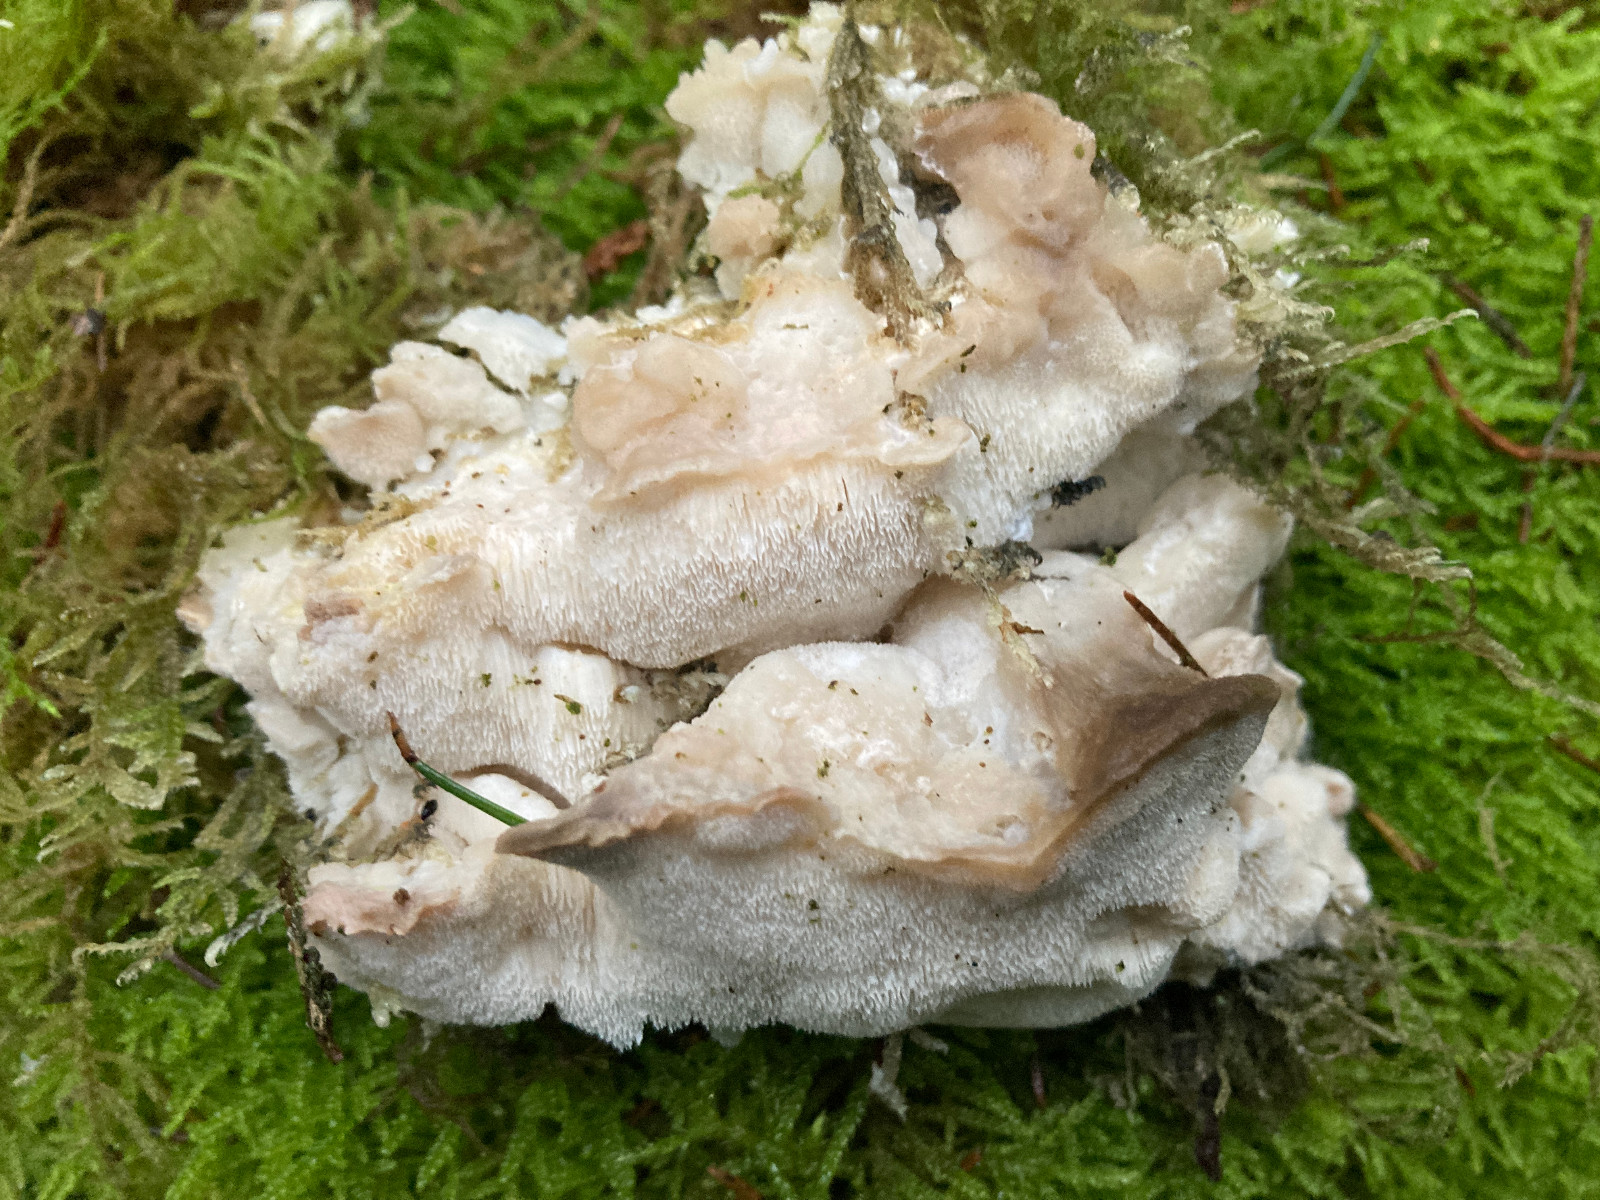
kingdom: Fungi
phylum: Basidiomycota
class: Agaricomycetes
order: Polyporales
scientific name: Polyporales
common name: poresvampordenen
